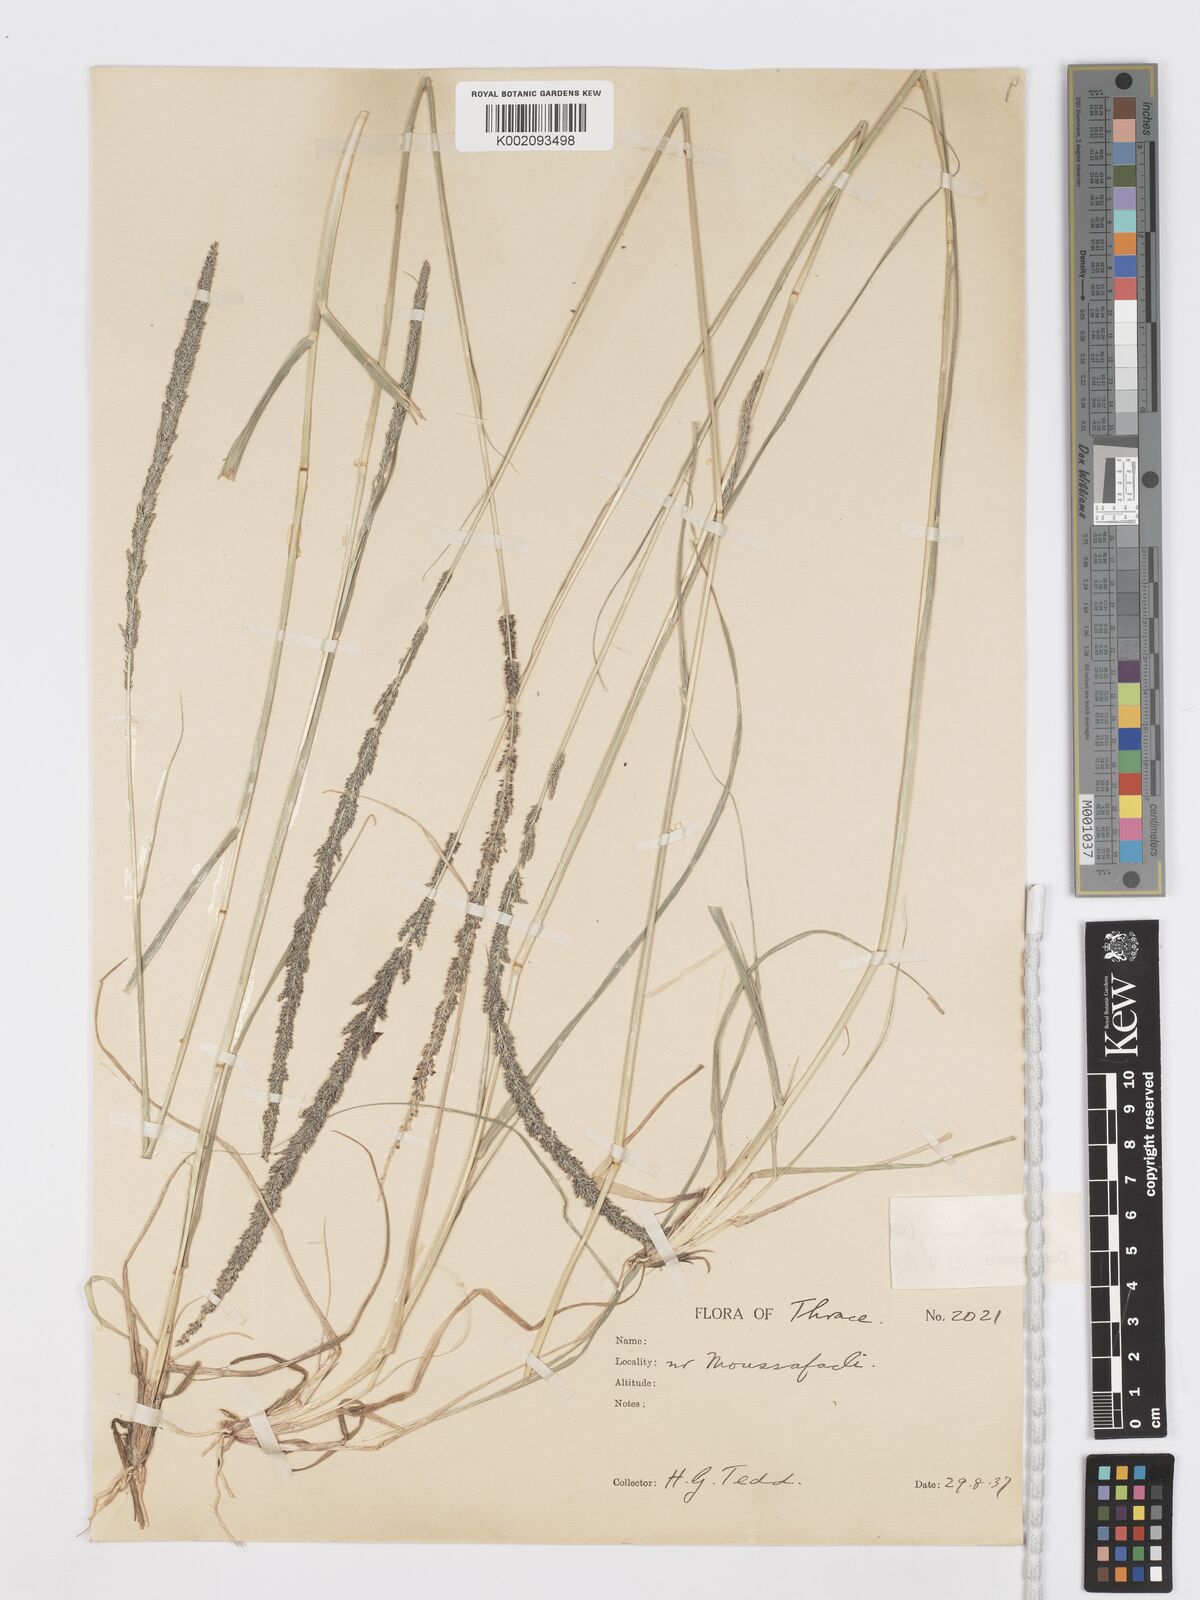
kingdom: Plantae
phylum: Tracheophyta
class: Liliopsida
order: Poales
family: Poaceae
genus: Sporobolus
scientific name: Sporobolus indicus
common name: Smut grass
